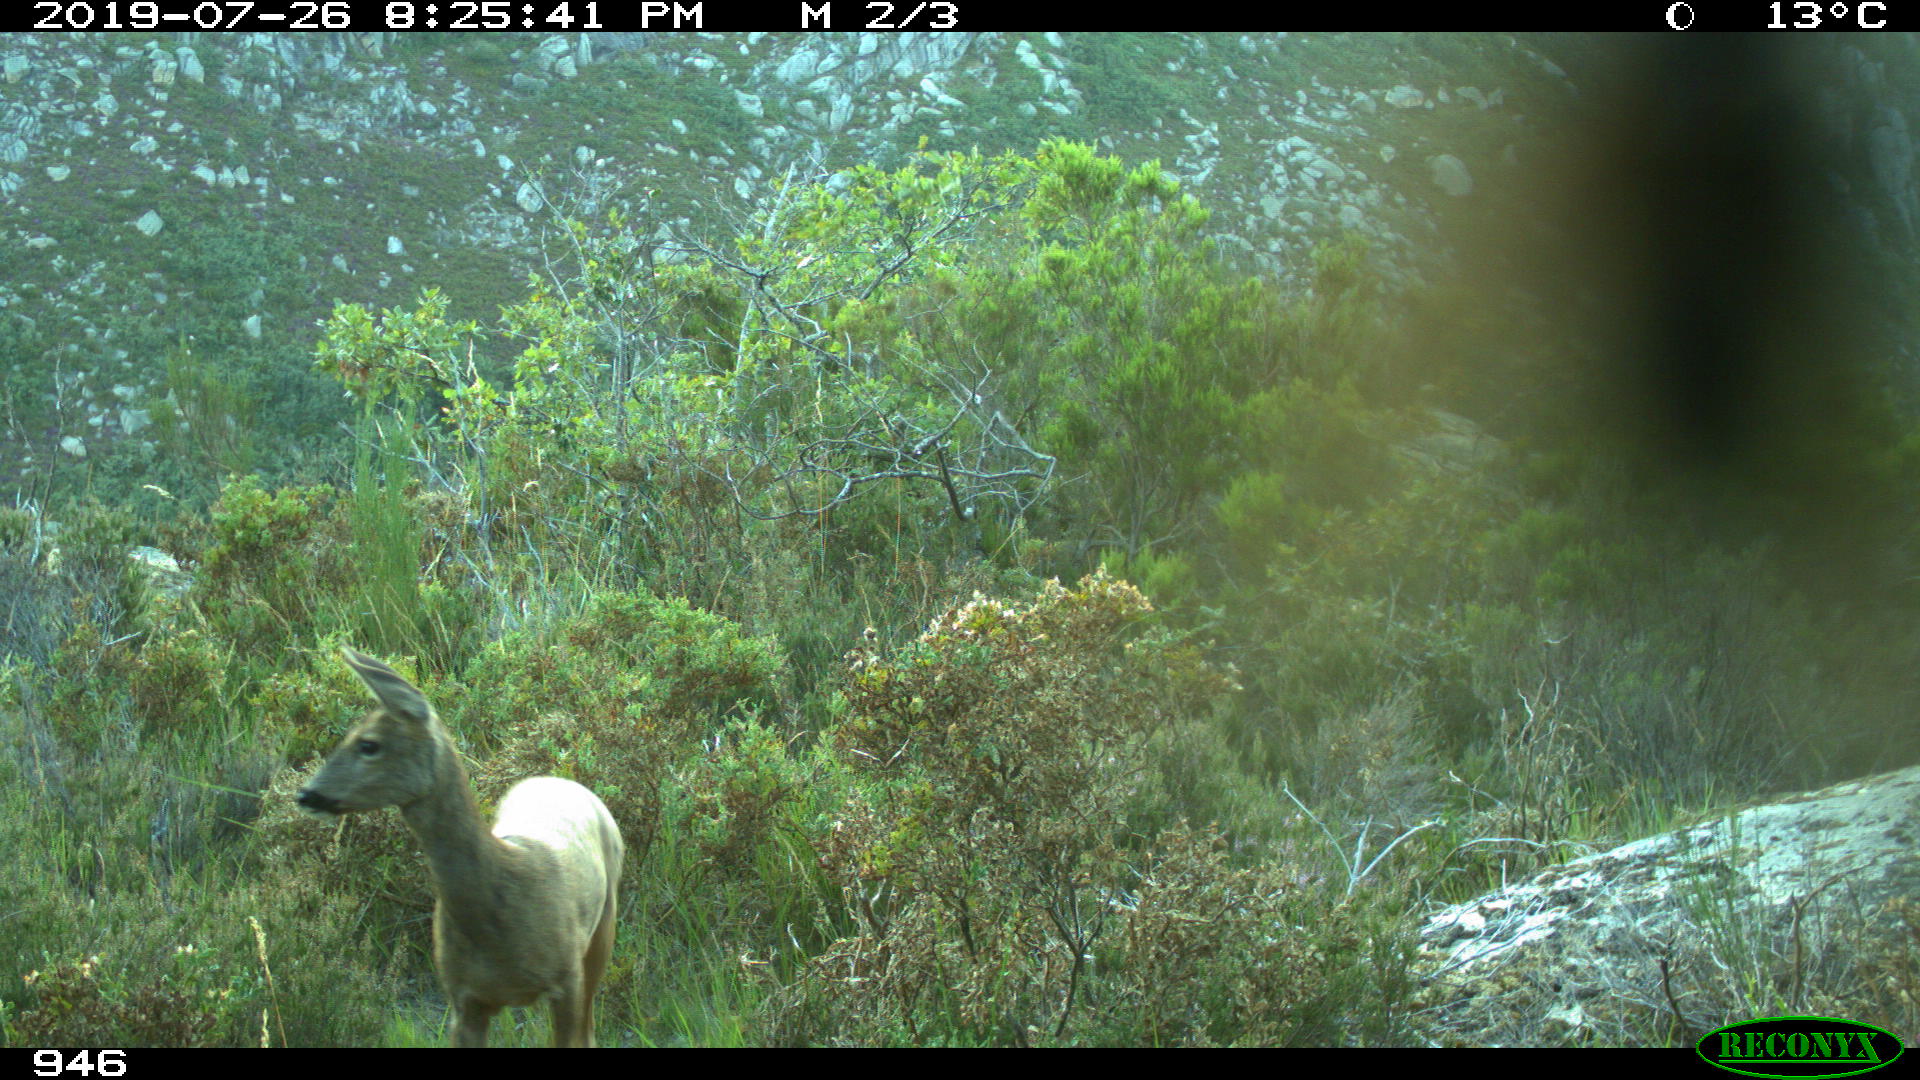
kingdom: Animalia
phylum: Chordata
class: Mammalia
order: Artiodactyla
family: Cervidae
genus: Capreolus
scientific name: Capreolus capreolus
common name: Western roe deer
